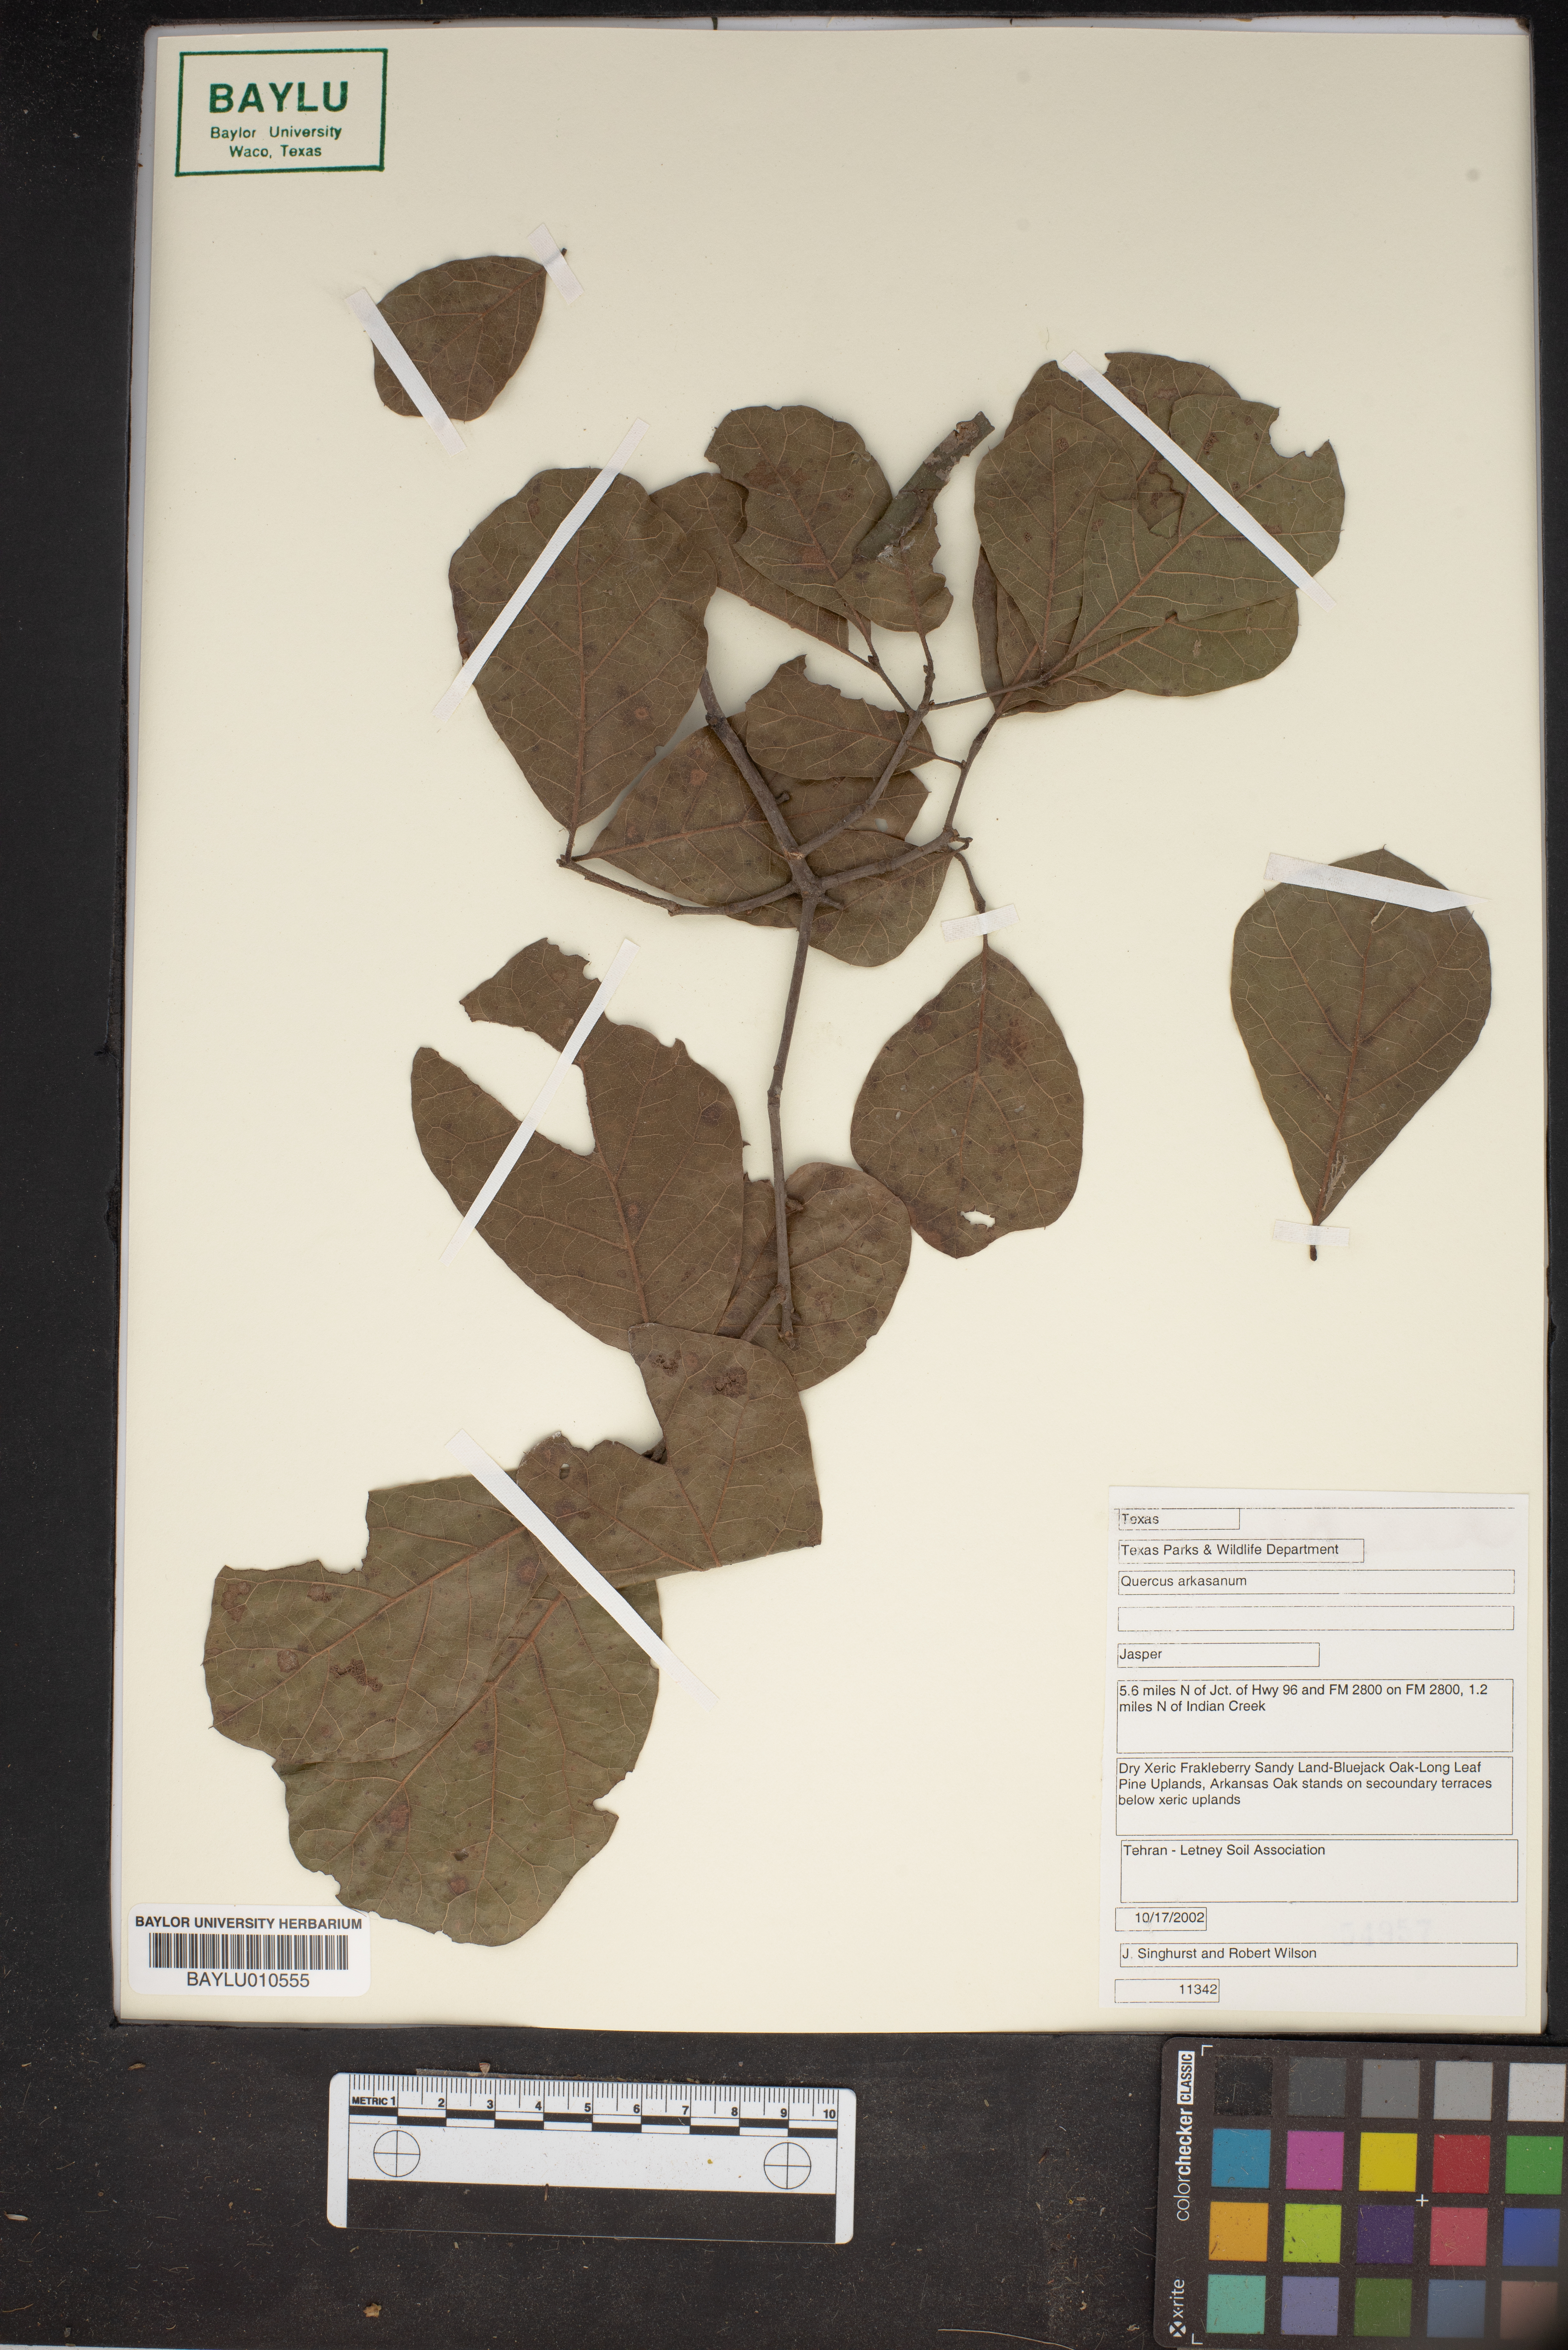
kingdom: Plantae
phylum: Tracheophyta
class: Magnoliopsida
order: Fagales
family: Fagaceae
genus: Quercus
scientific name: Quercus arkansana
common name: Arkansas oak
